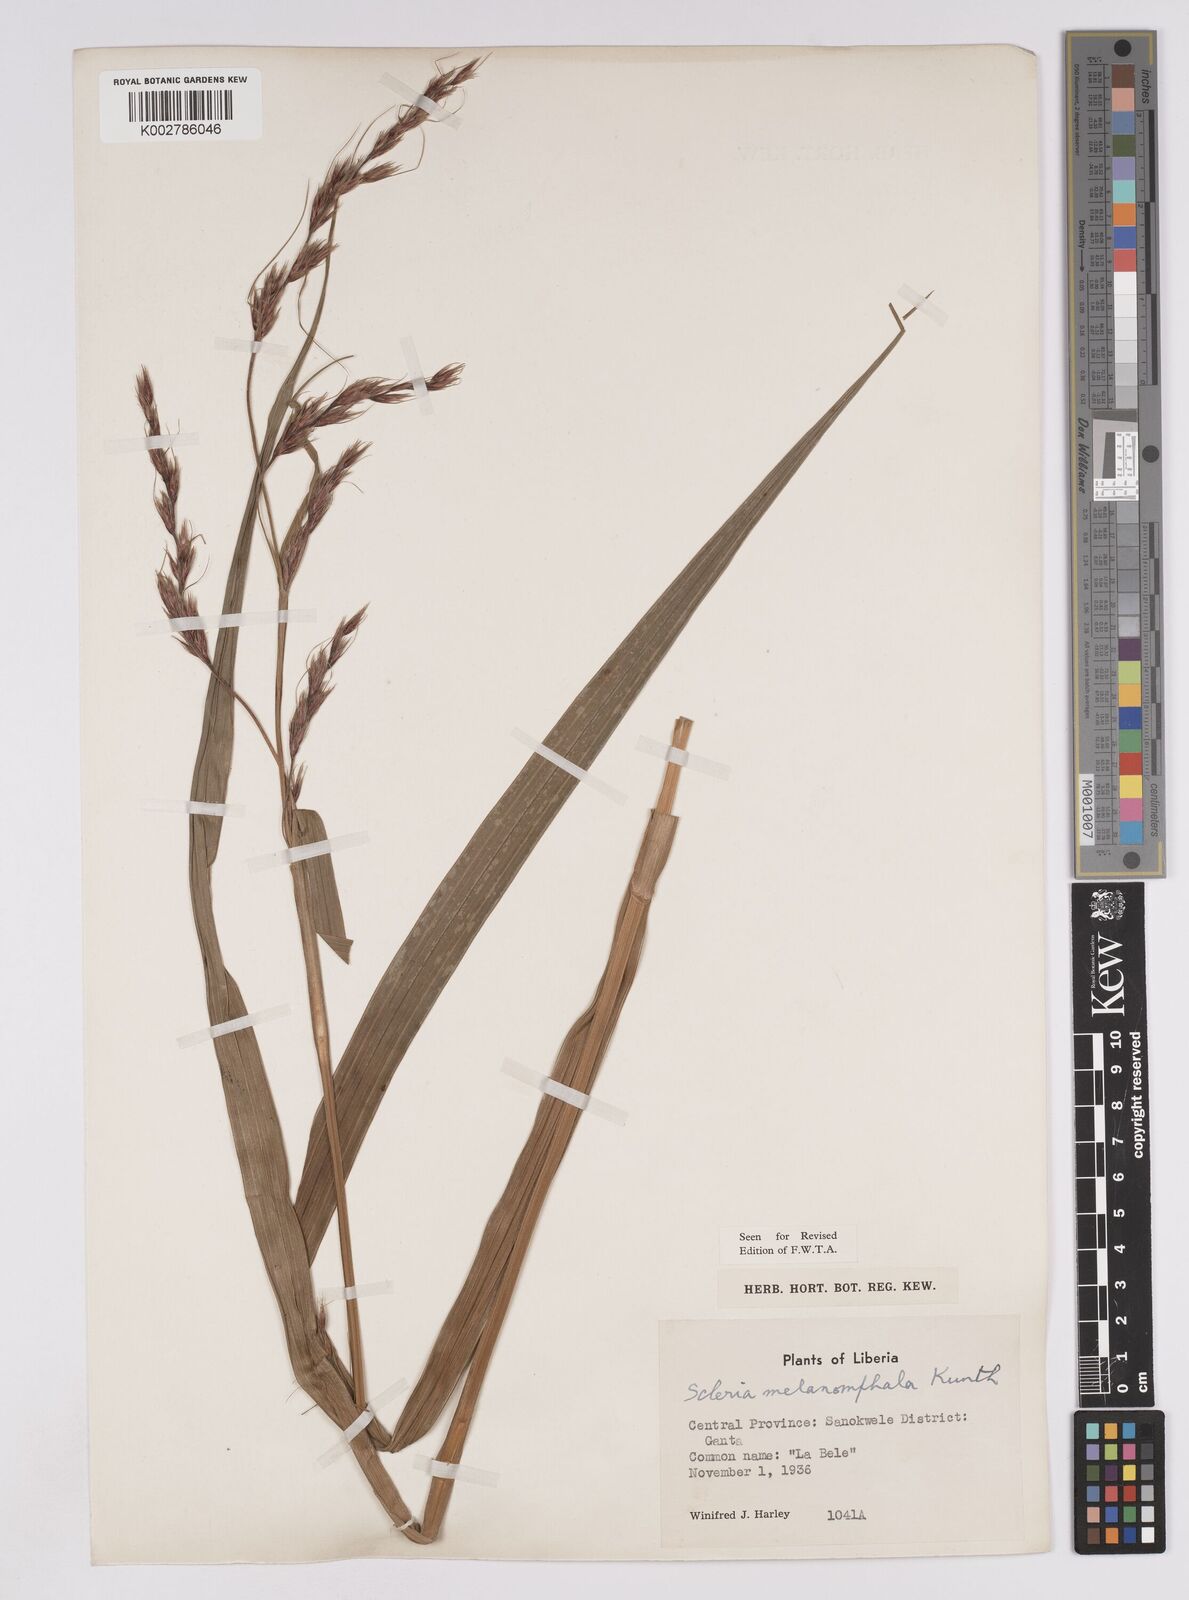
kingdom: Plantae
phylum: Tracheophyta
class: Liliopsida
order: Poales
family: Cyperaceae
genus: Scleria
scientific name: Scleria melanomphala
